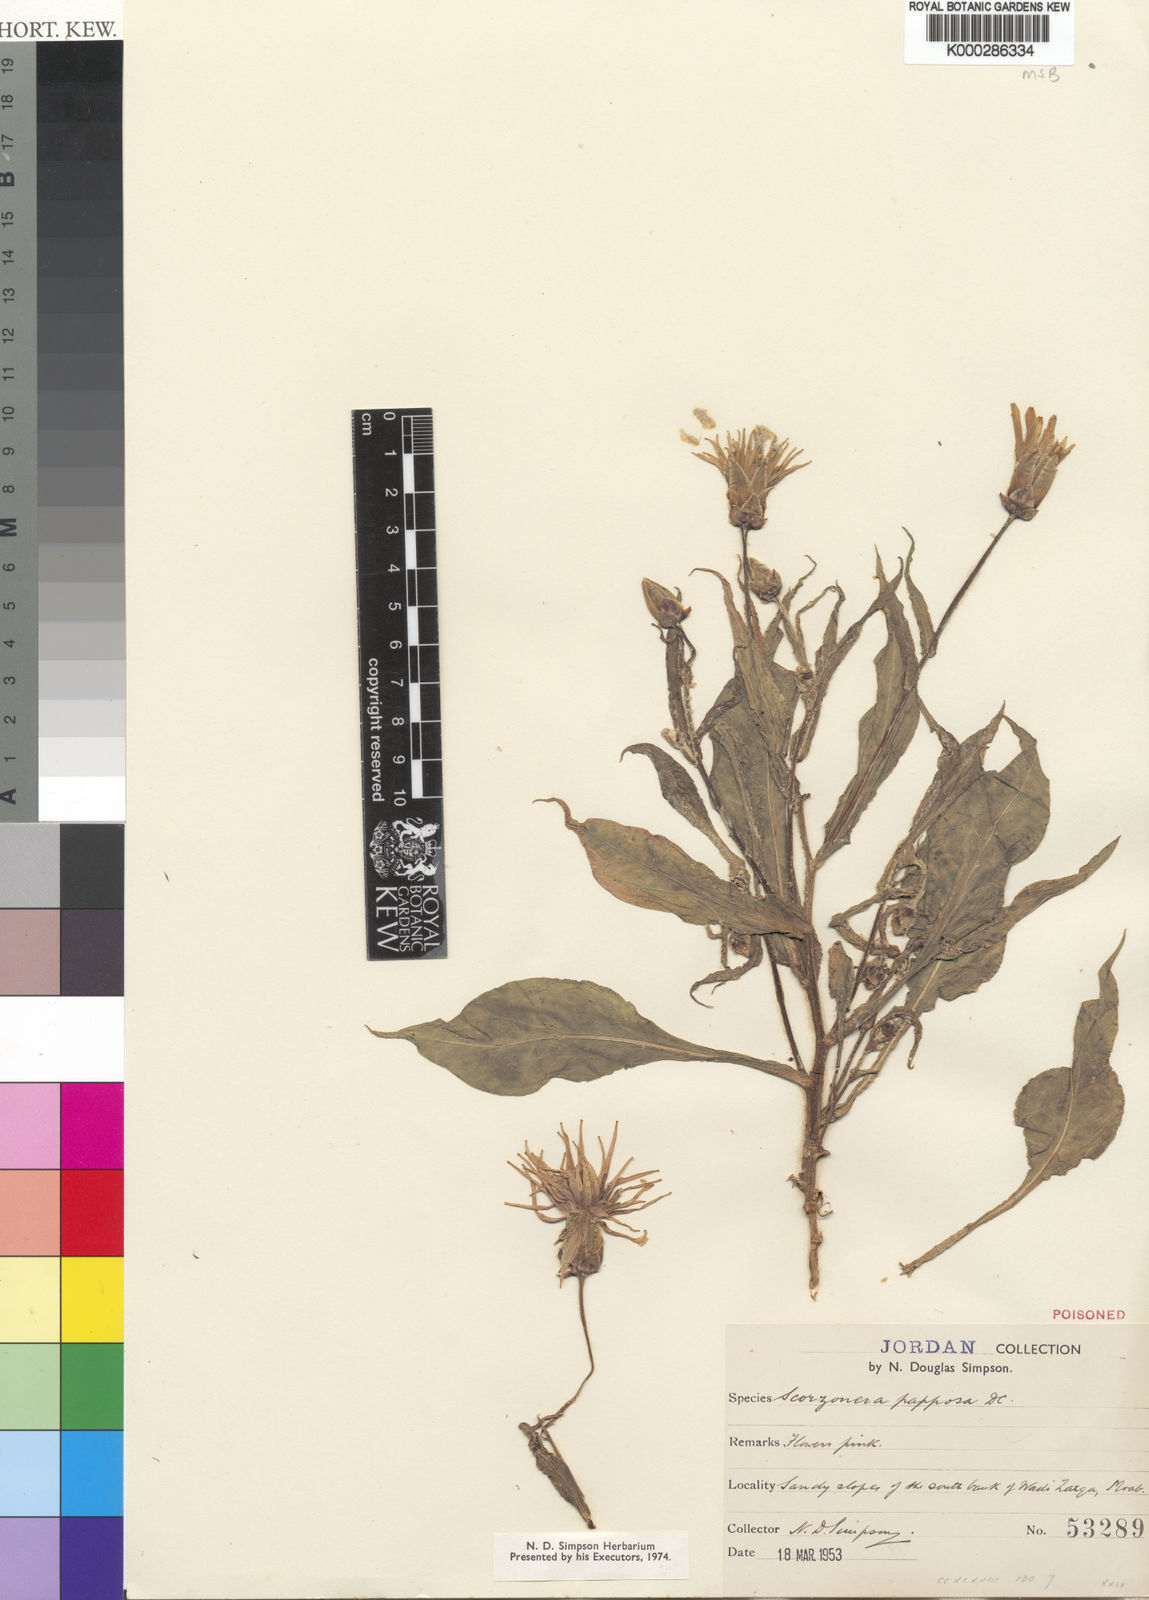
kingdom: Plantae
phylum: Tracheophyta
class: Magnoliopsida
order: Asterales
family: Asteraceae
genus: Pseudopodospermum
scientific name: Pseudopodospermum papposum
